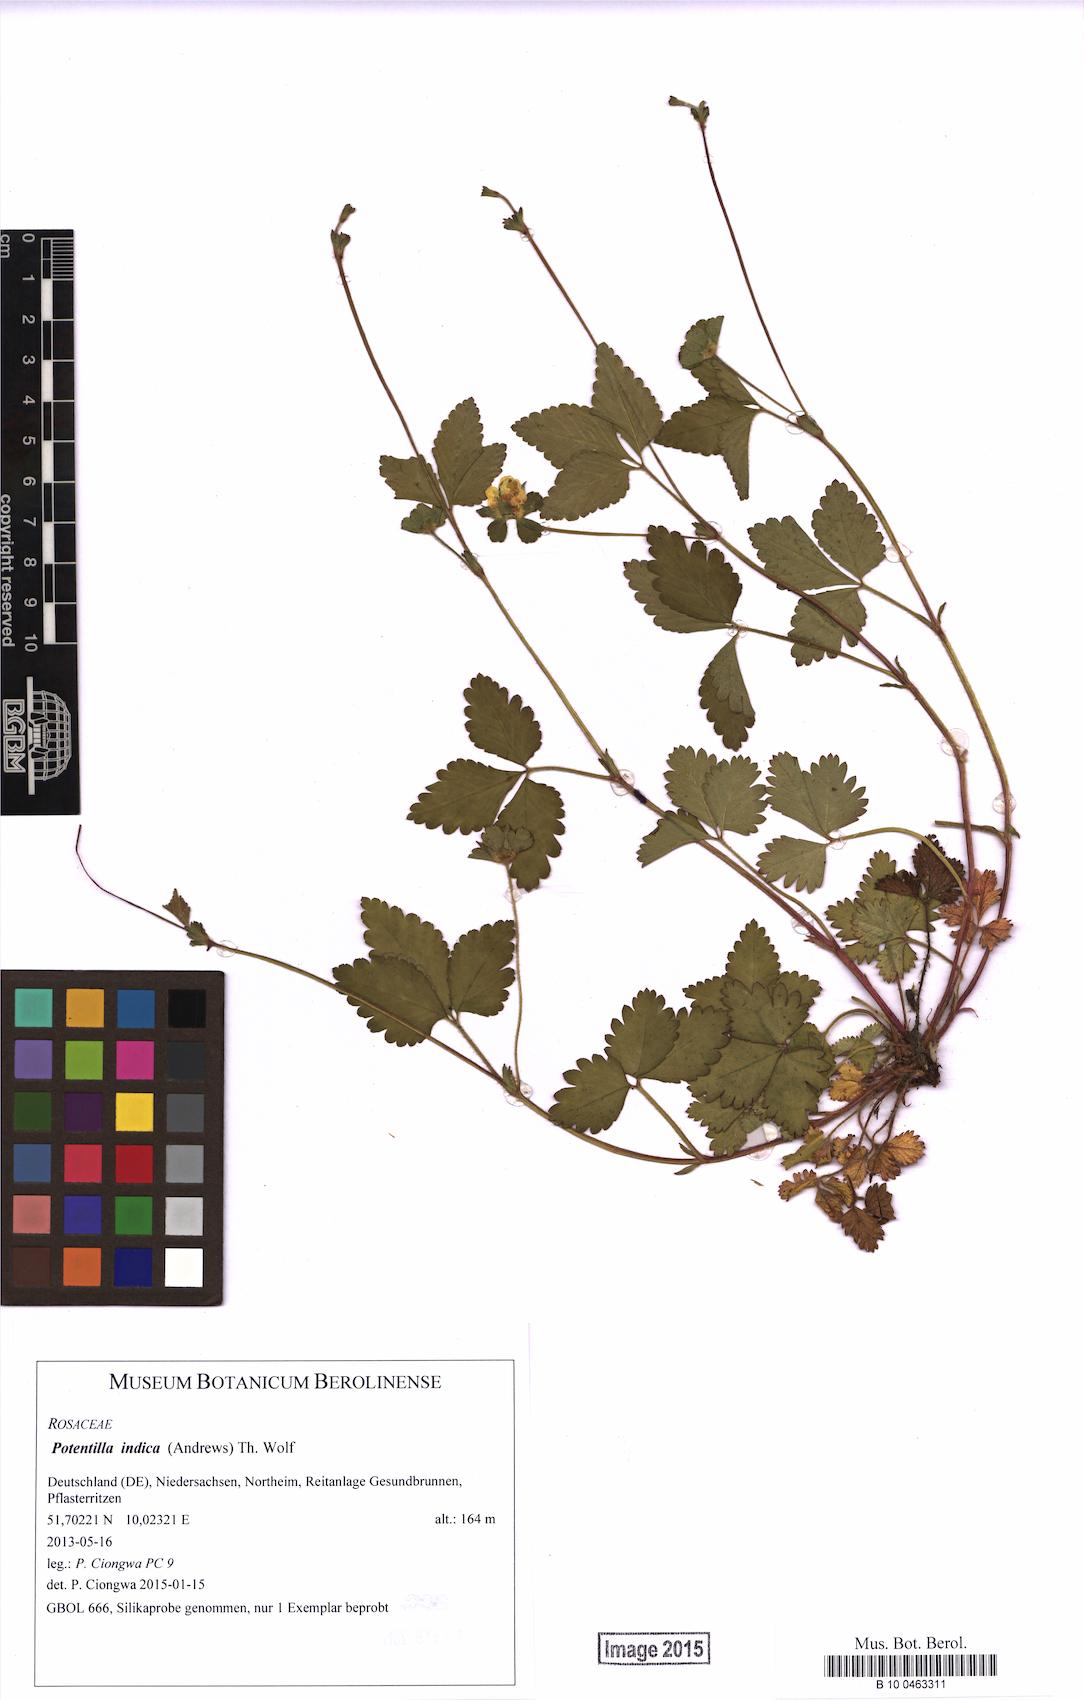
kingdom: Plantae
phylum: Tracheophyta
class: Magnoliopsida
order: Rosales
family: Rosaceae
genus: Potentilla
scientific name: Potentilla indica
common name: Yellow-flowered strawberry
